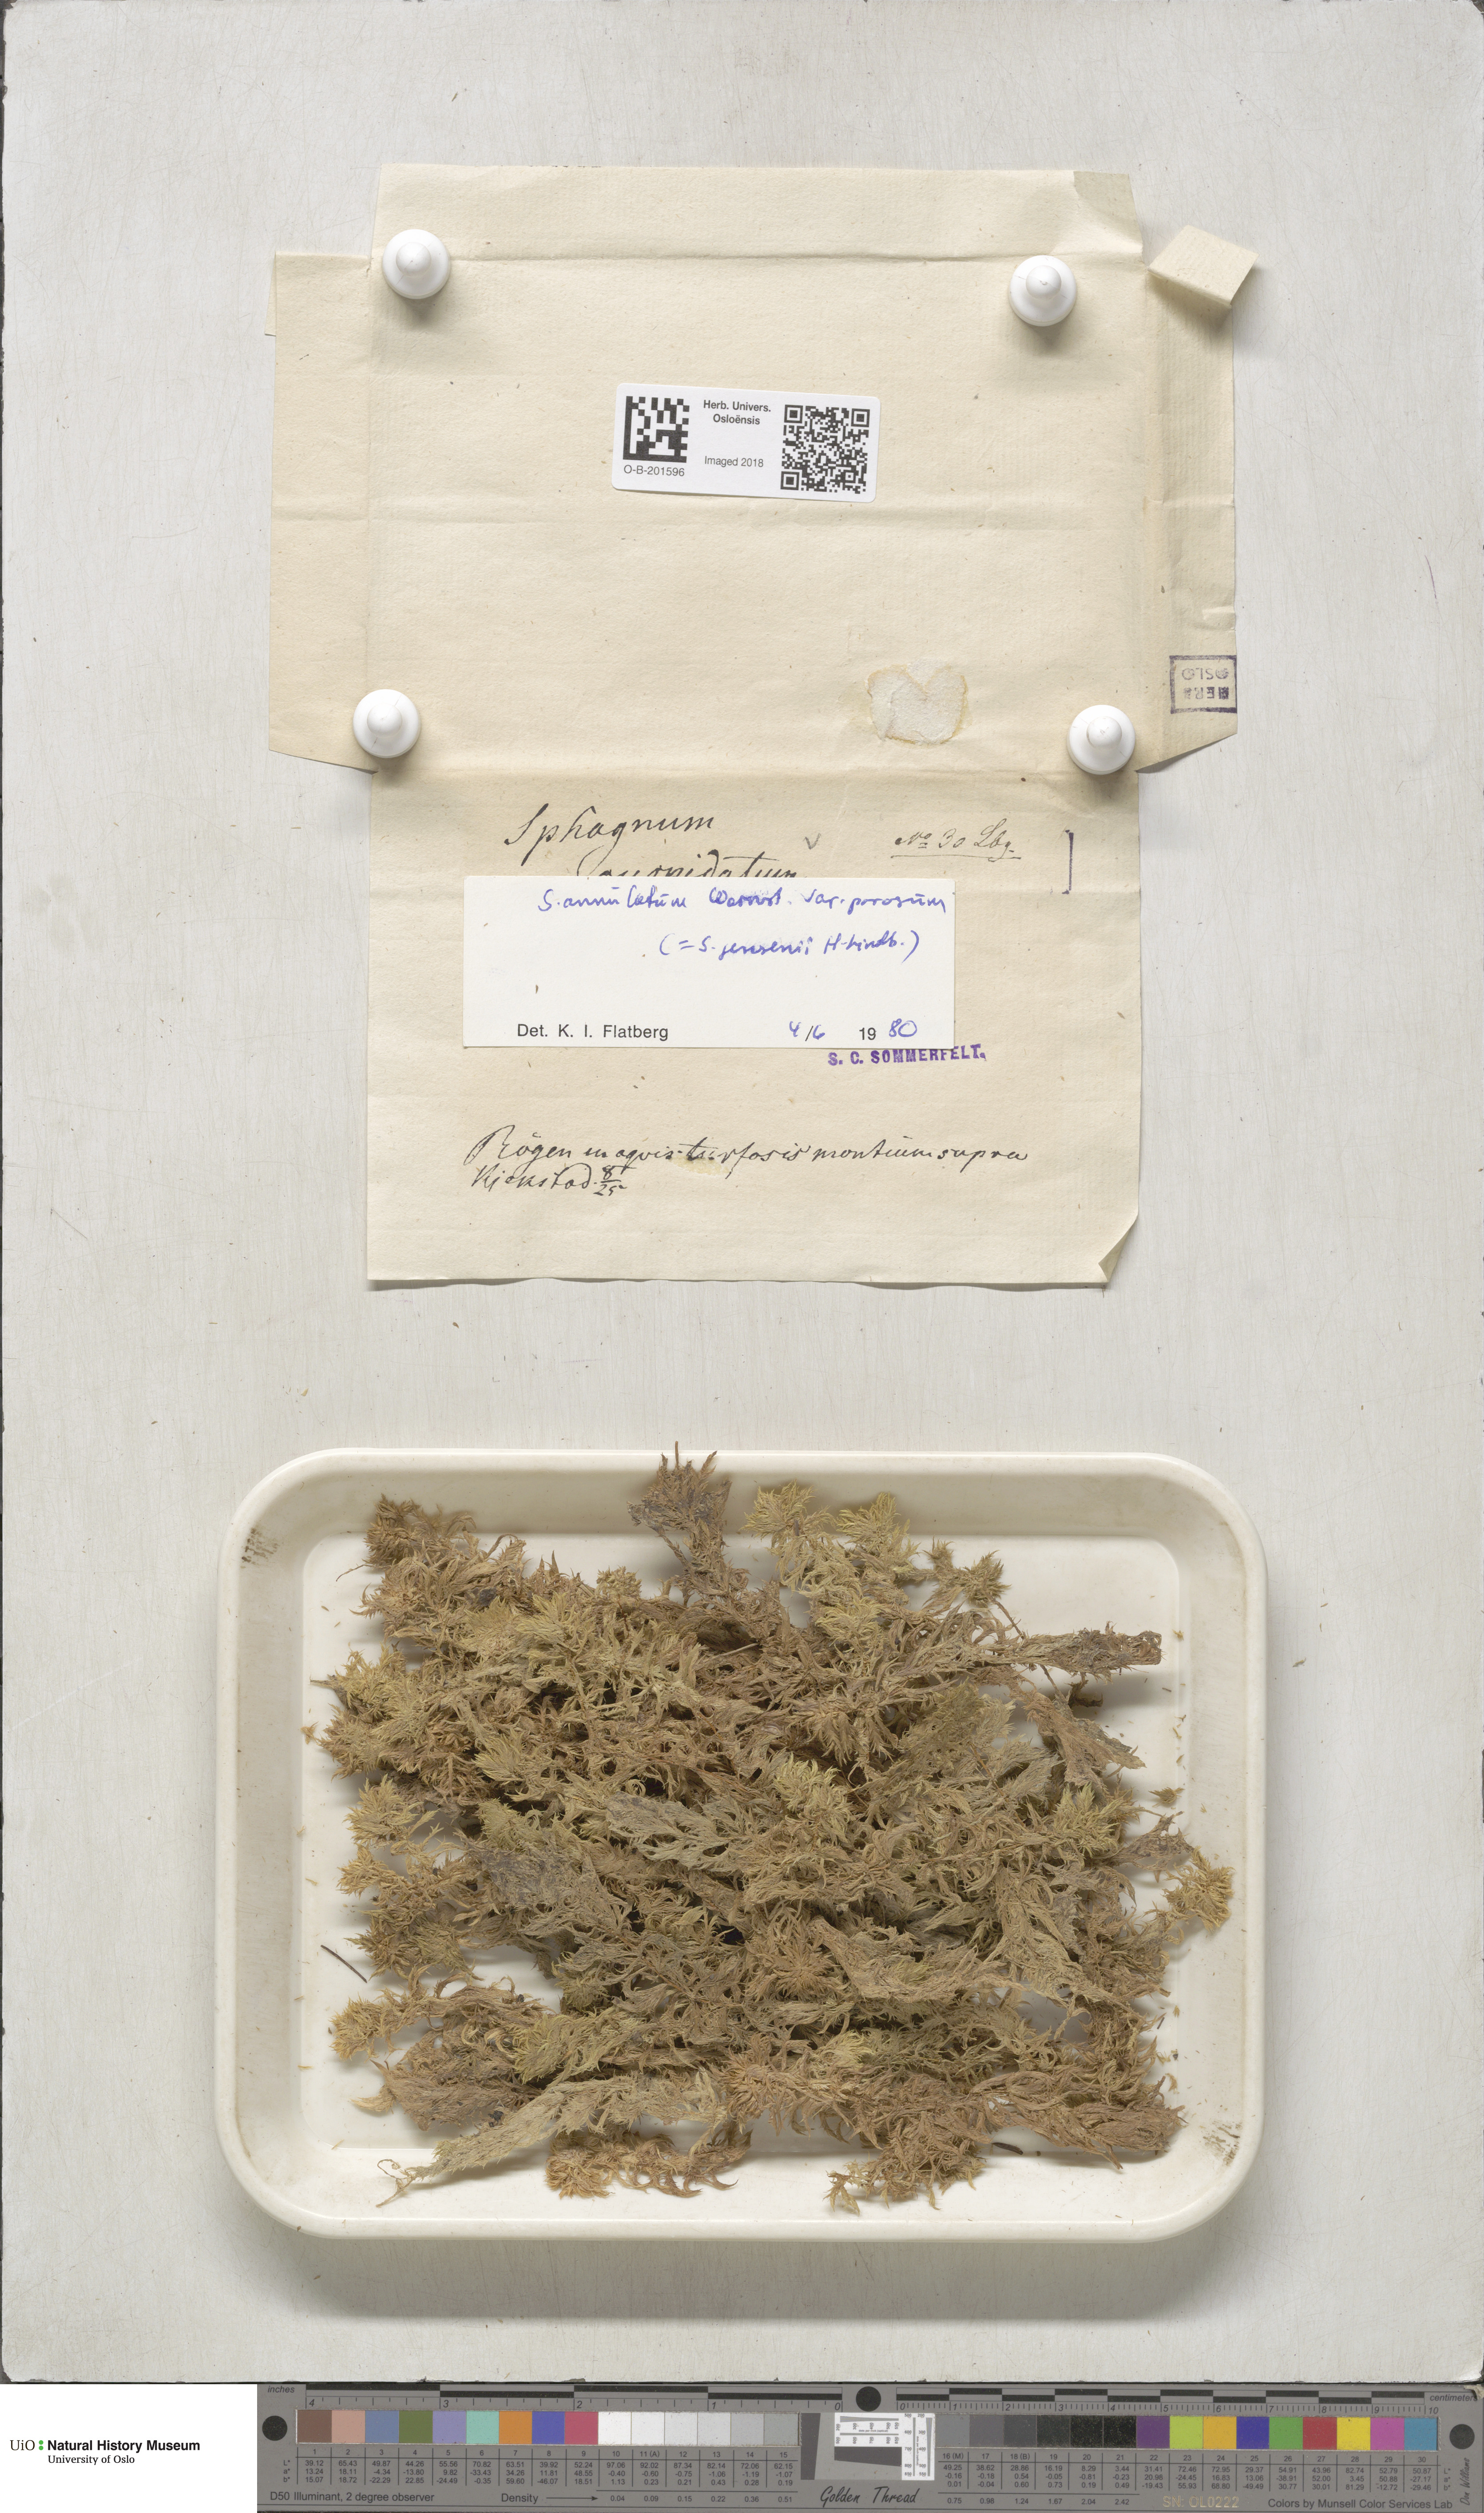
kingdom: Plantae
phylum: Bryophyta
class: Sphagnopsida
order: Sphagnales
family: Sphagnaceae
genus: Sphagnum
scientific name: Sphagnum jensenii
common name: Jensen's peat moss
